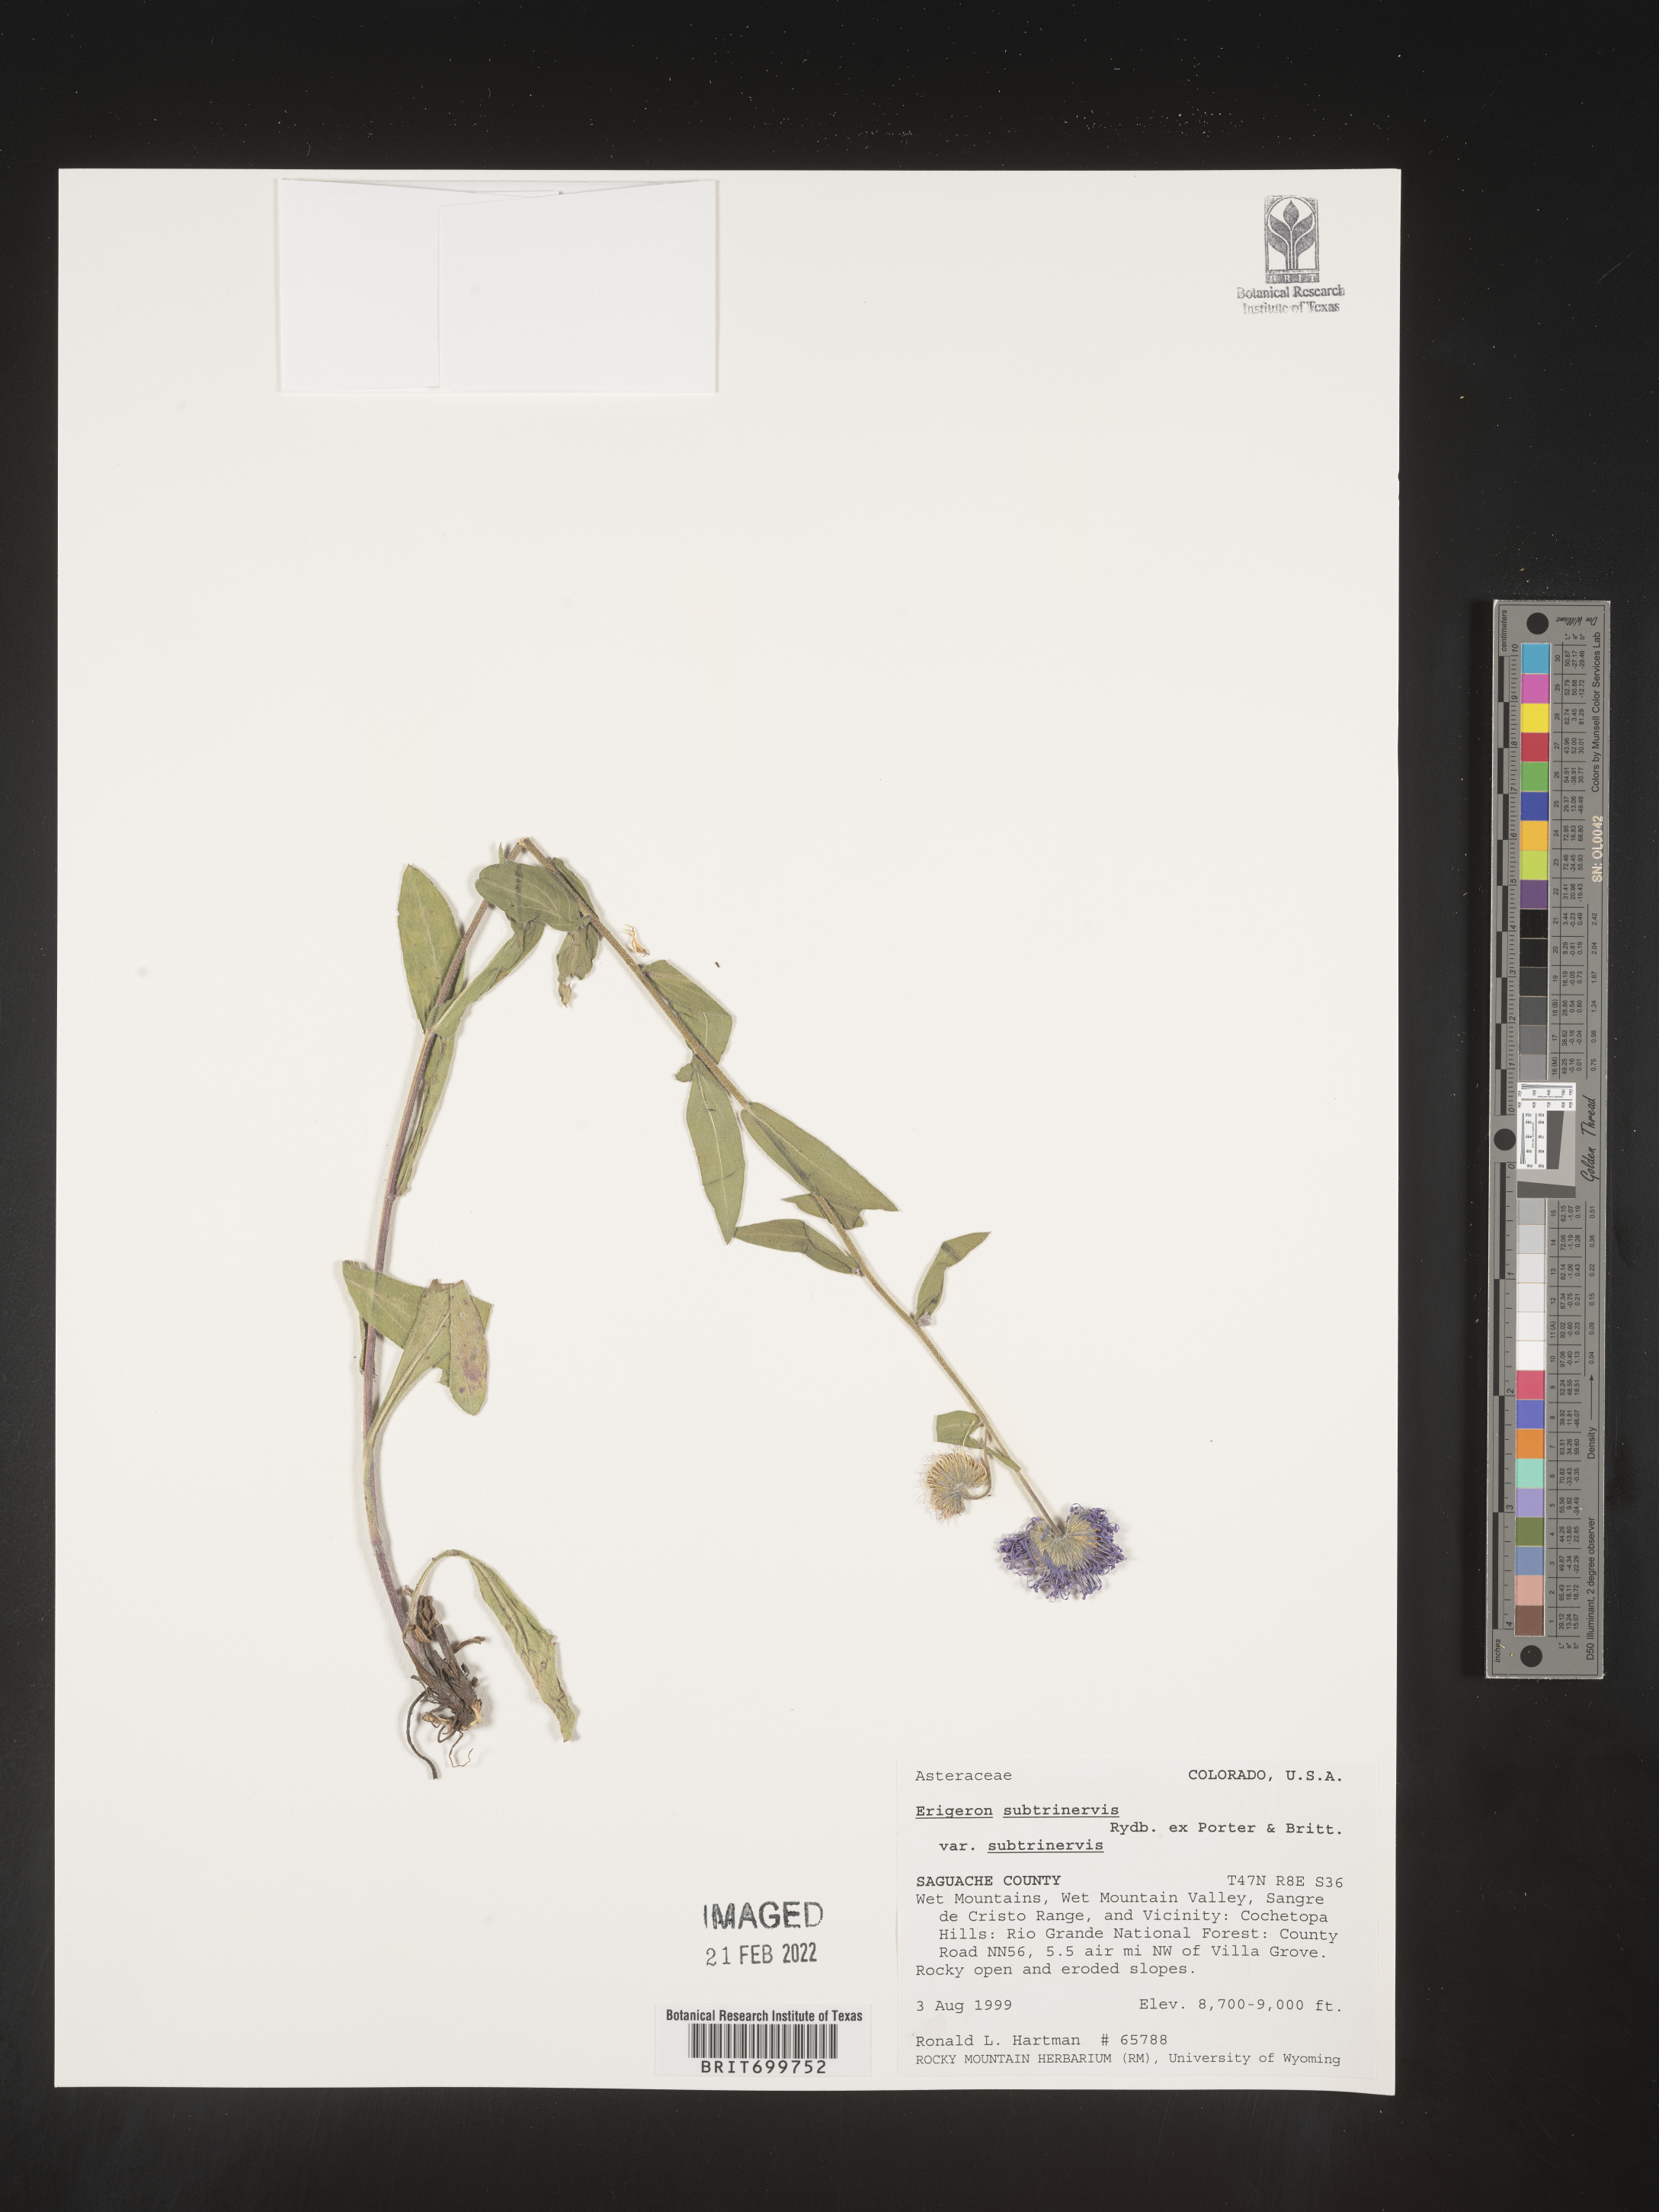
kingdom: Plantae
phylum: Tracheophyta
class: Magnoliopsida
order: Asterales
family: Asteraceae
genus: Erigeron
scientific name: Erigeron subtrinervis
